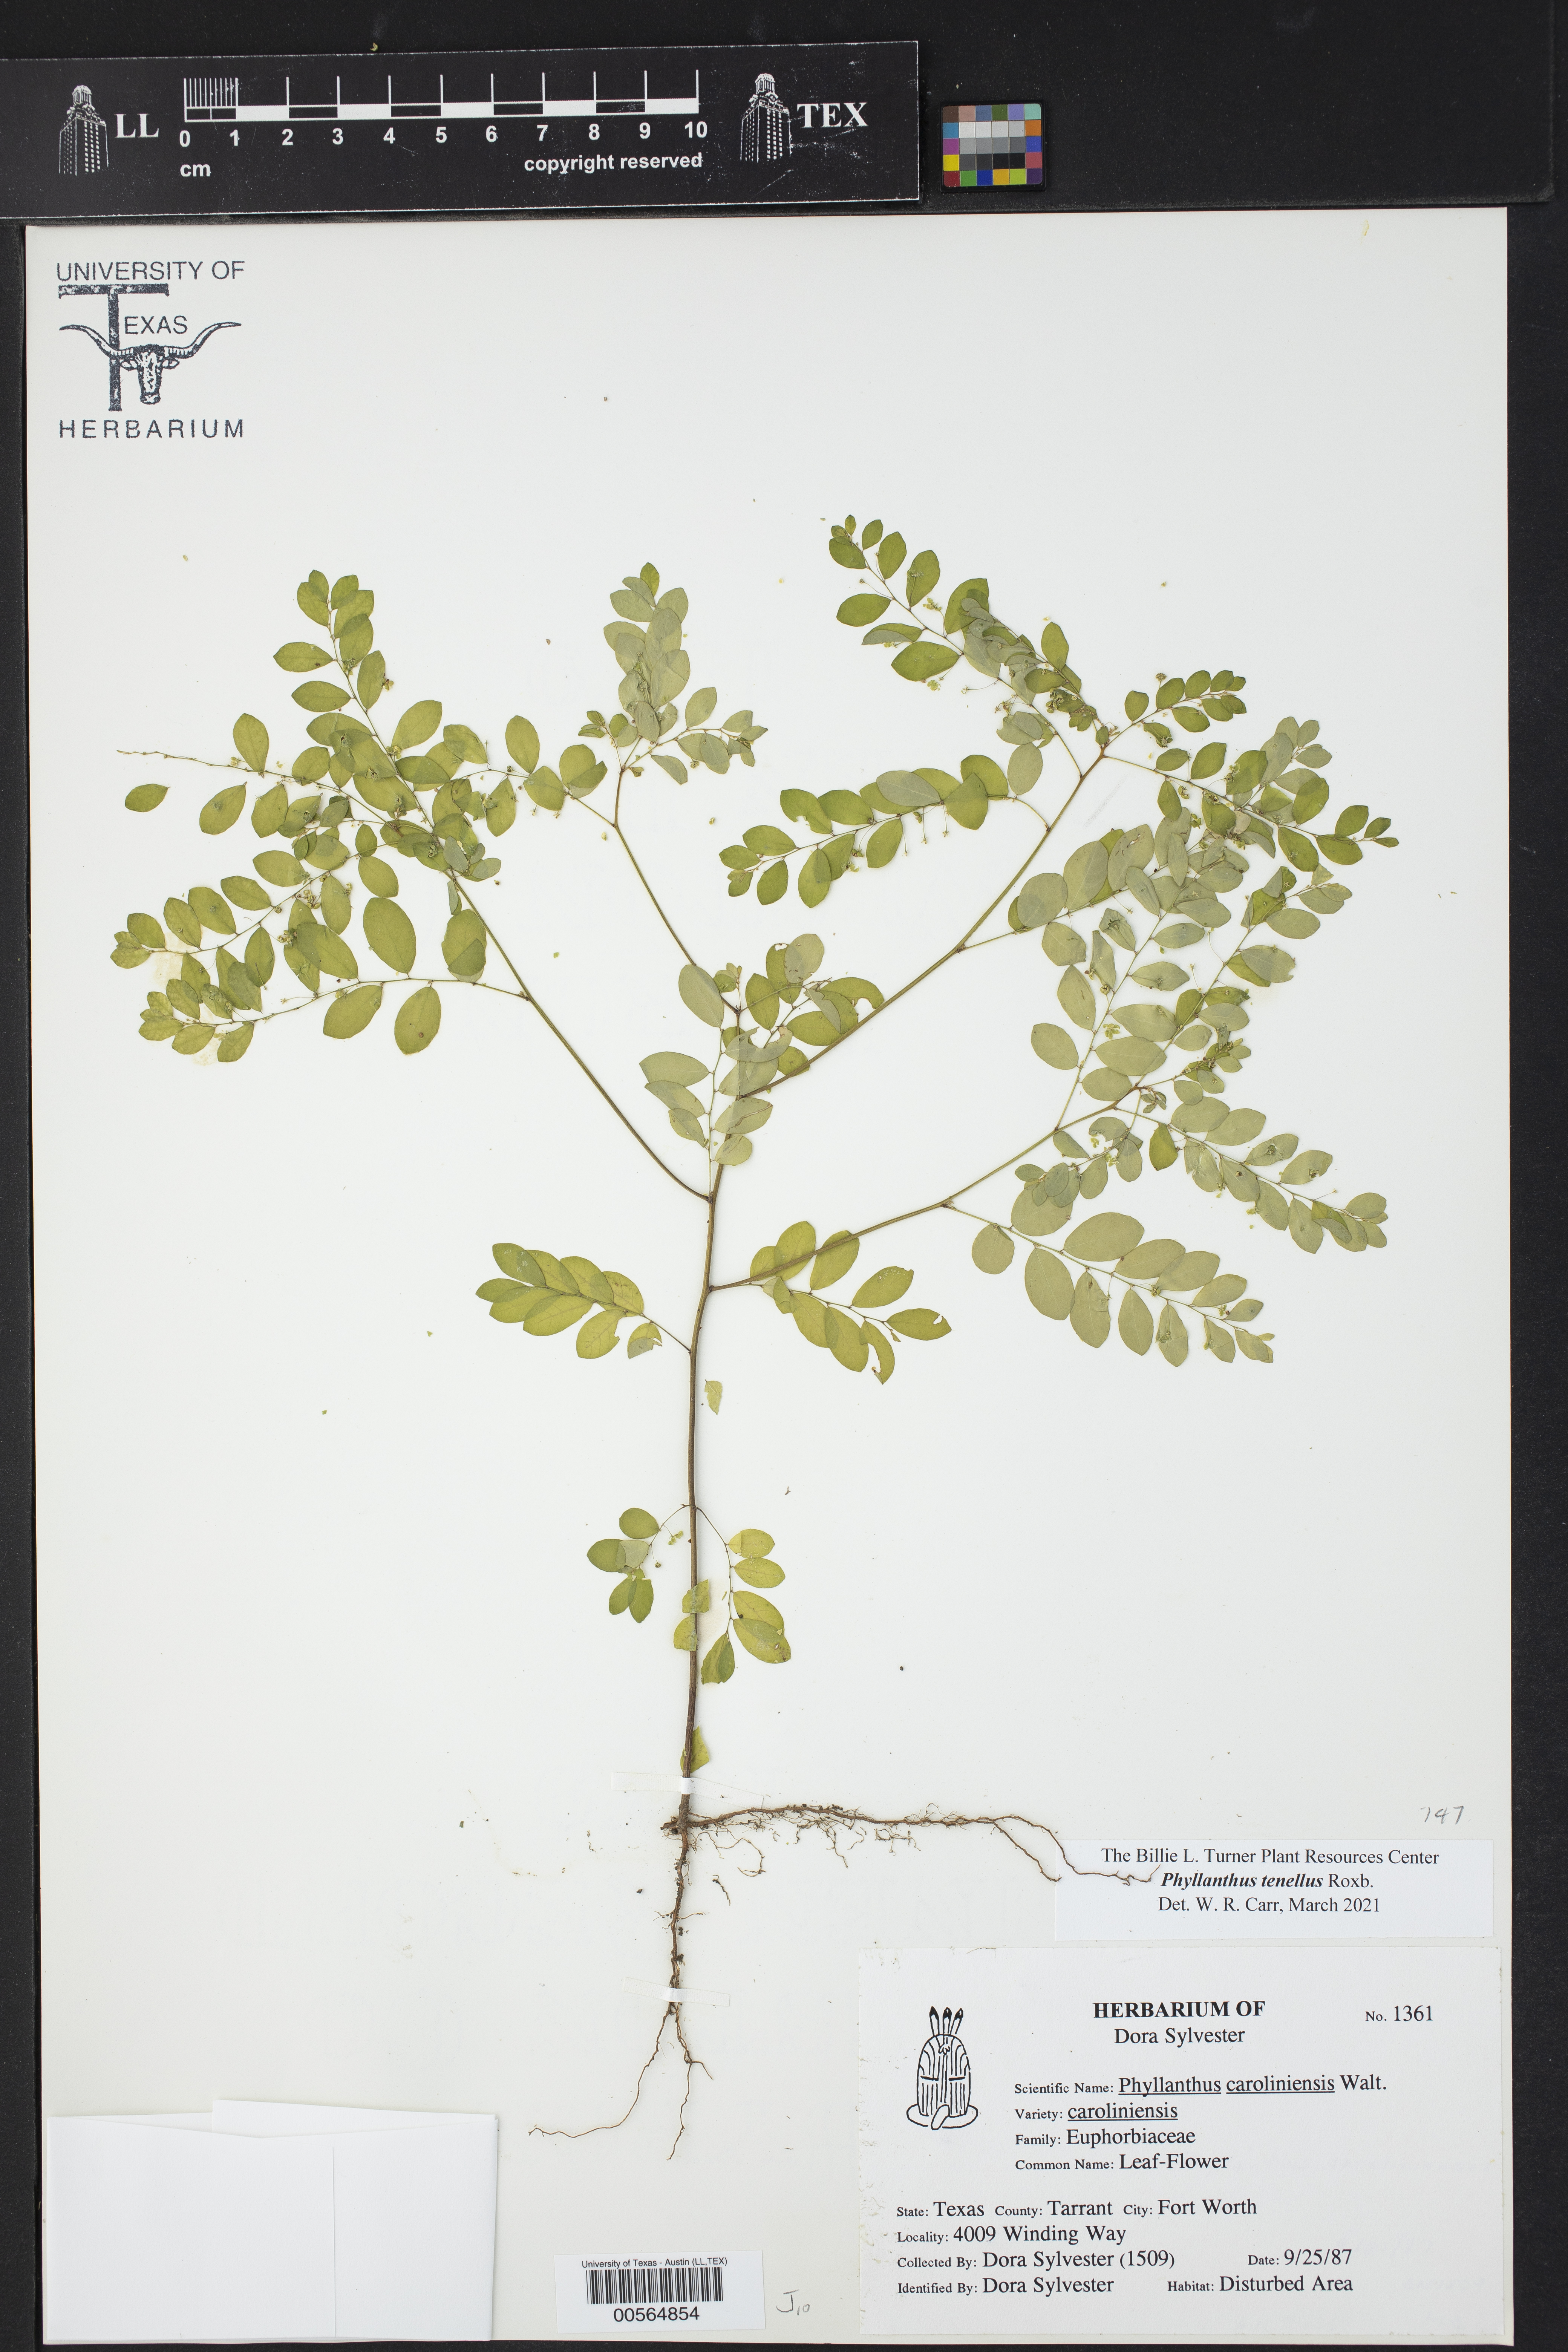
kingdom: Plantae
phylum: Tracheophyta
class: Magnoliopsida
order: Malpighiales
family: Phyllanthaceae
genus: Phyllanthus
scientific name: Phyllanthus tenellus
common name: Mascarene island leaf-flower
